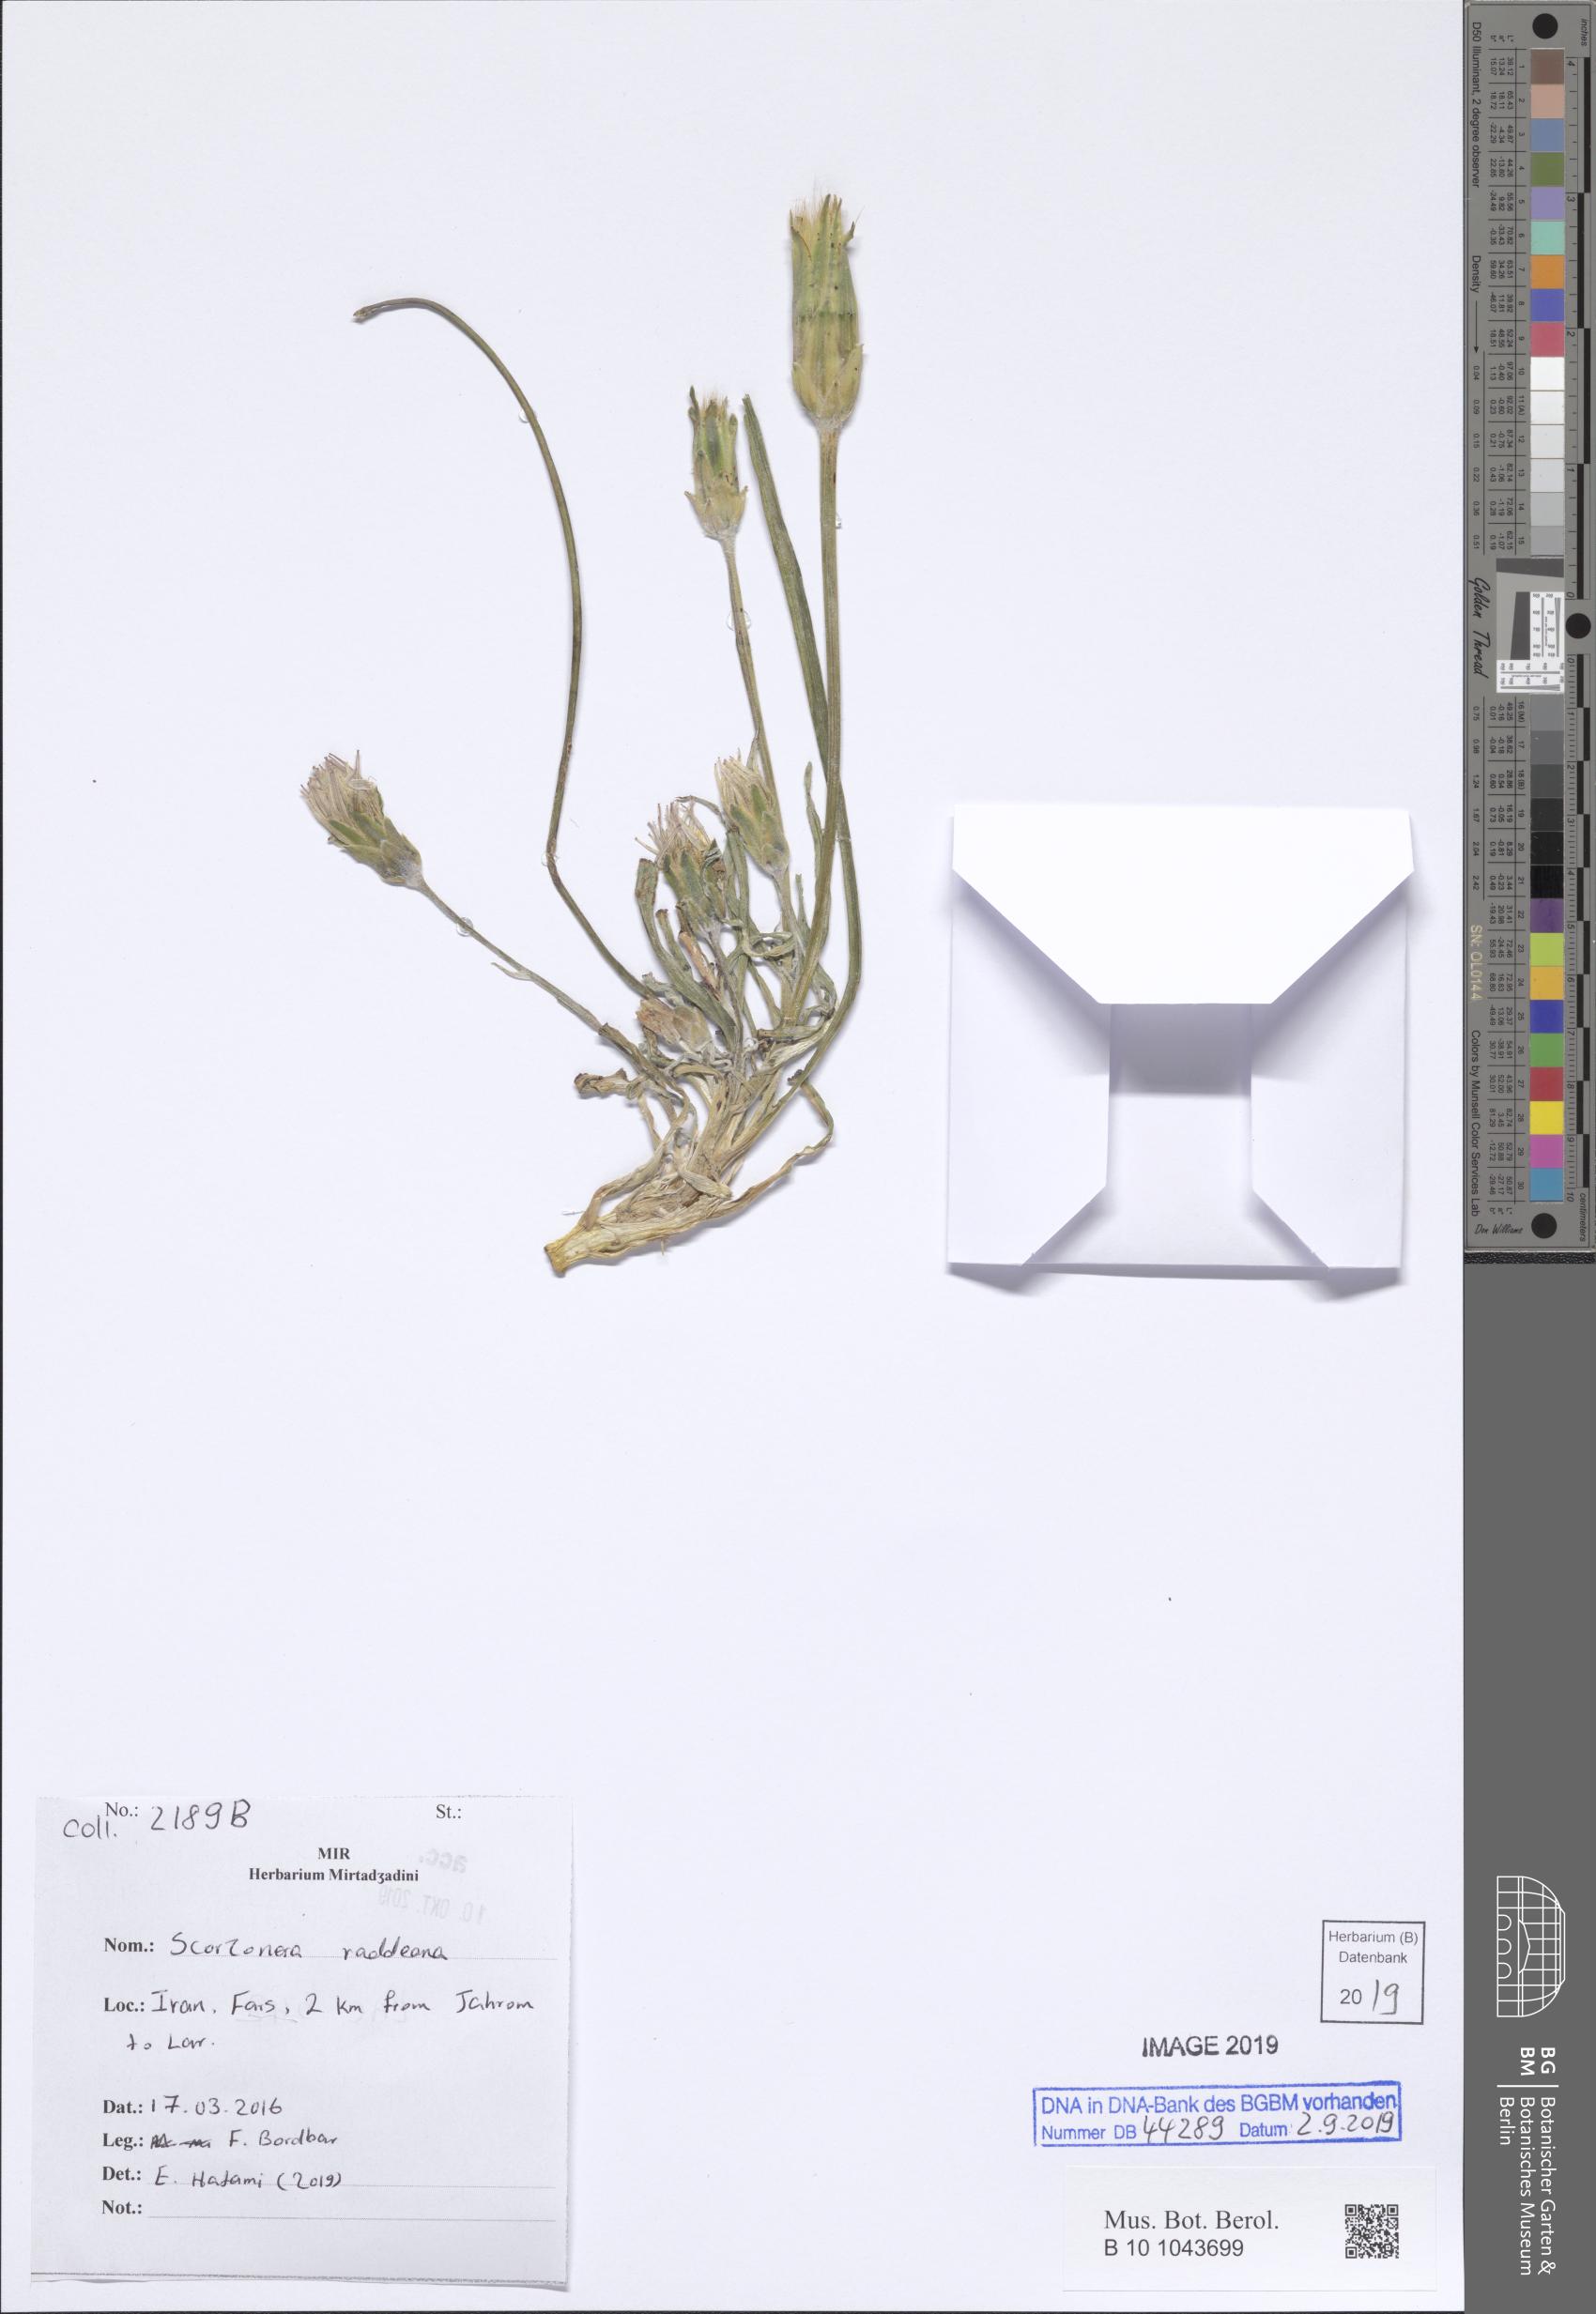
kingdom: Plantae
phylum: Tracheophyta
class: Magnoliopsida
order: Asterales
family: Asteraceae
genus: Candollea
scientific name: Candollea raddeana
